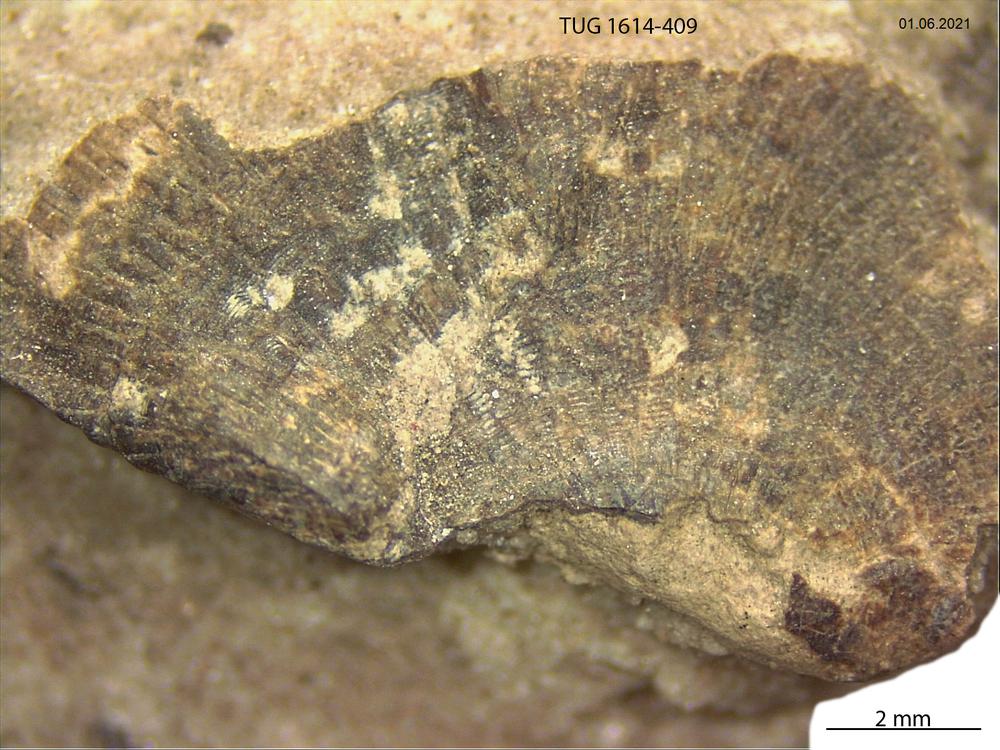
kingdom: Animalia
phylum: Mollusca
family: Scenellidae
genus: Scenella
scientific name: Scenella
